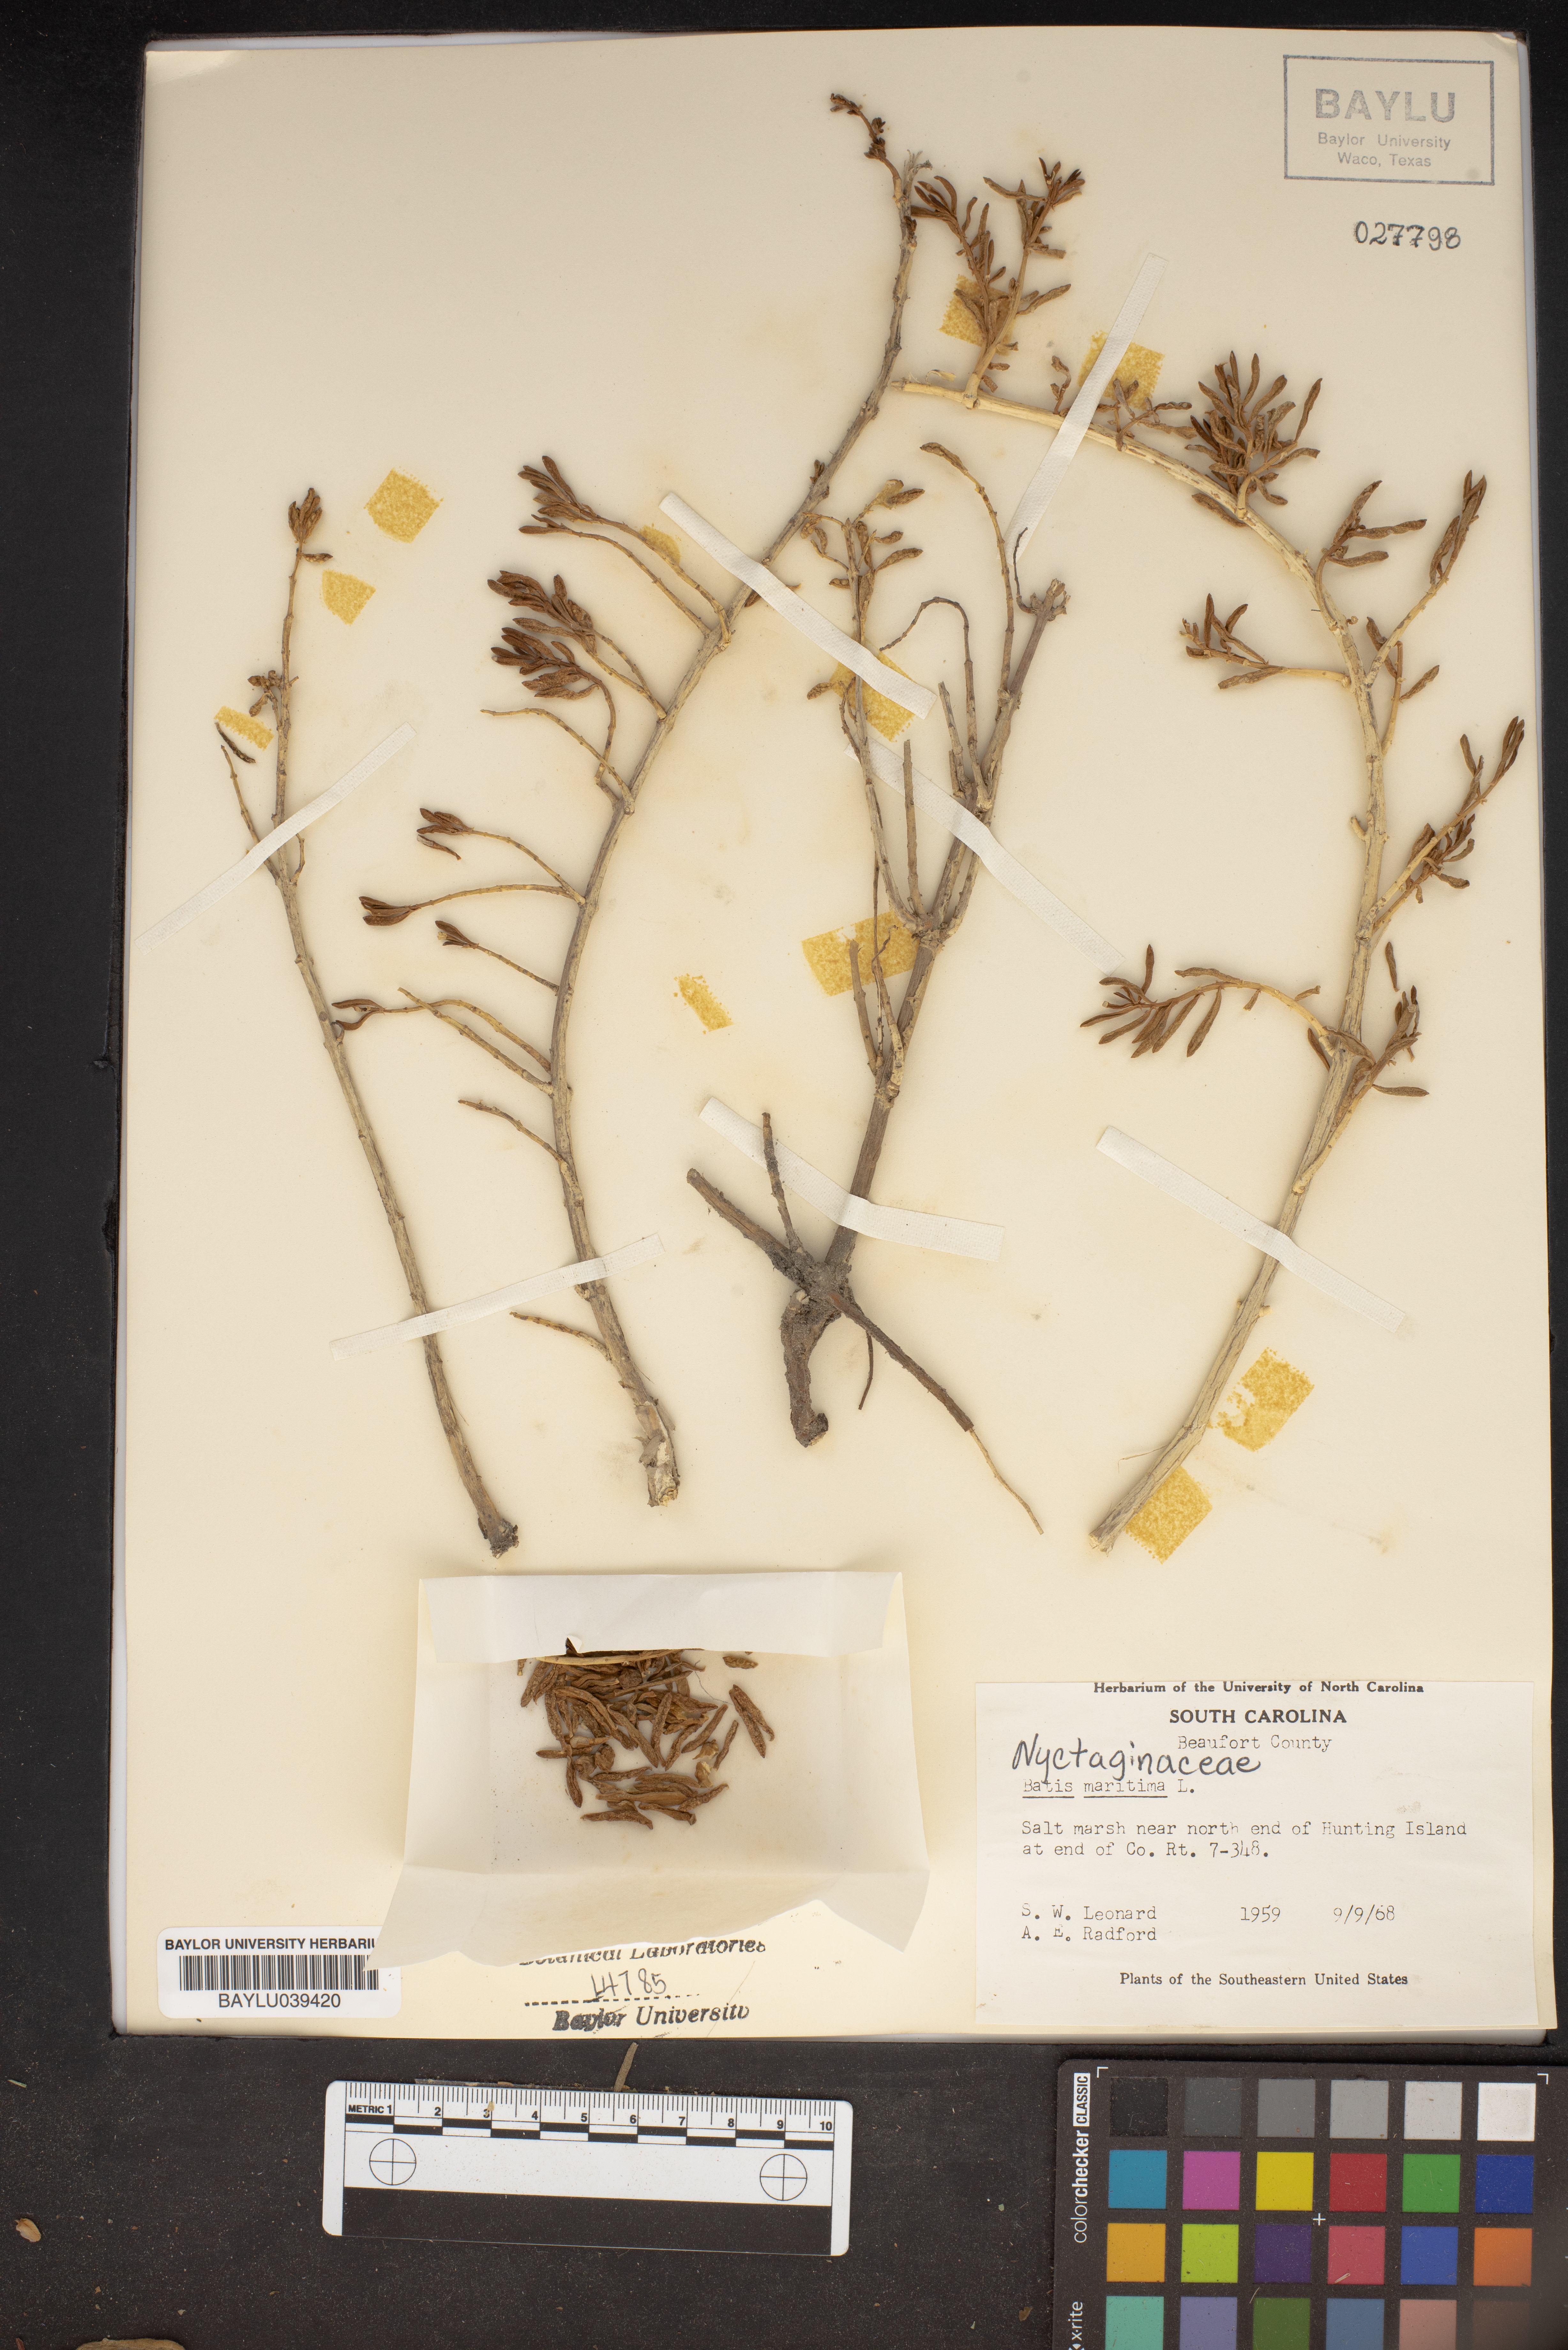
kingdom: Plantae
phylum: Tracheophyta
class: Magnoliopsida
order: Brassicales
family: Bataceae
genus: Batis
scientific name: Batis maritima
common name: Turtleweed
